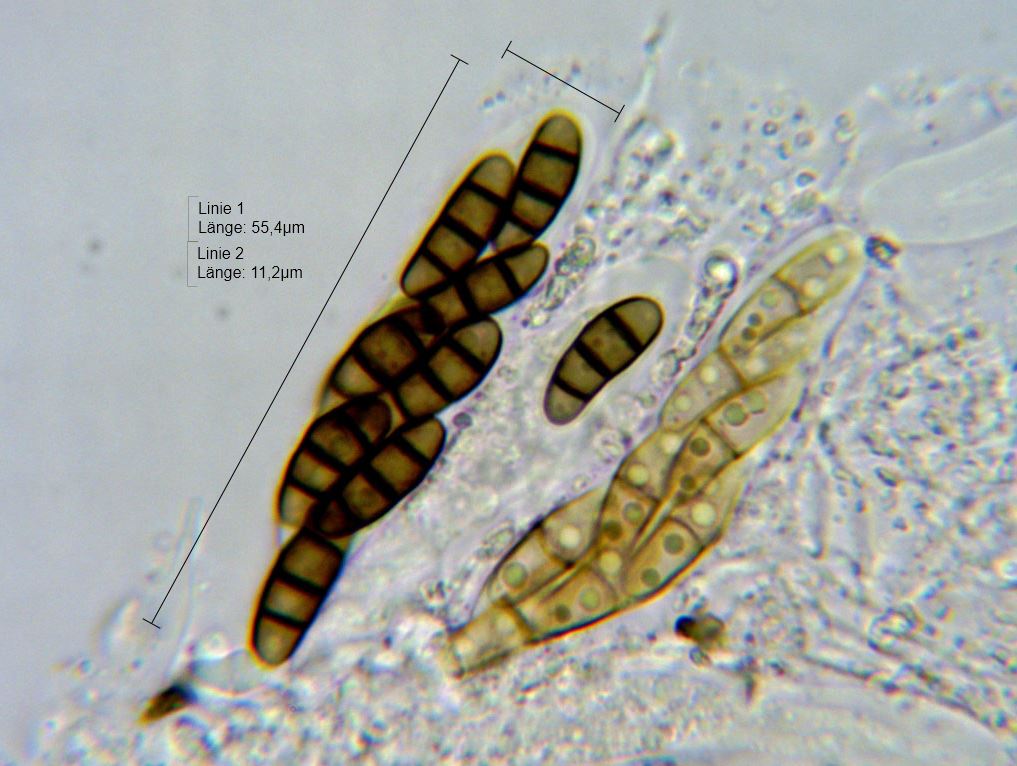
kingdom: Fungi
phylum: Ascomycota
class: Dothideomycetes
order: Hysteriales
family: Hysteriaceae
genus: Hysterium
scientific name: Hysterium acuminatum
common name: almindelig kulmund
